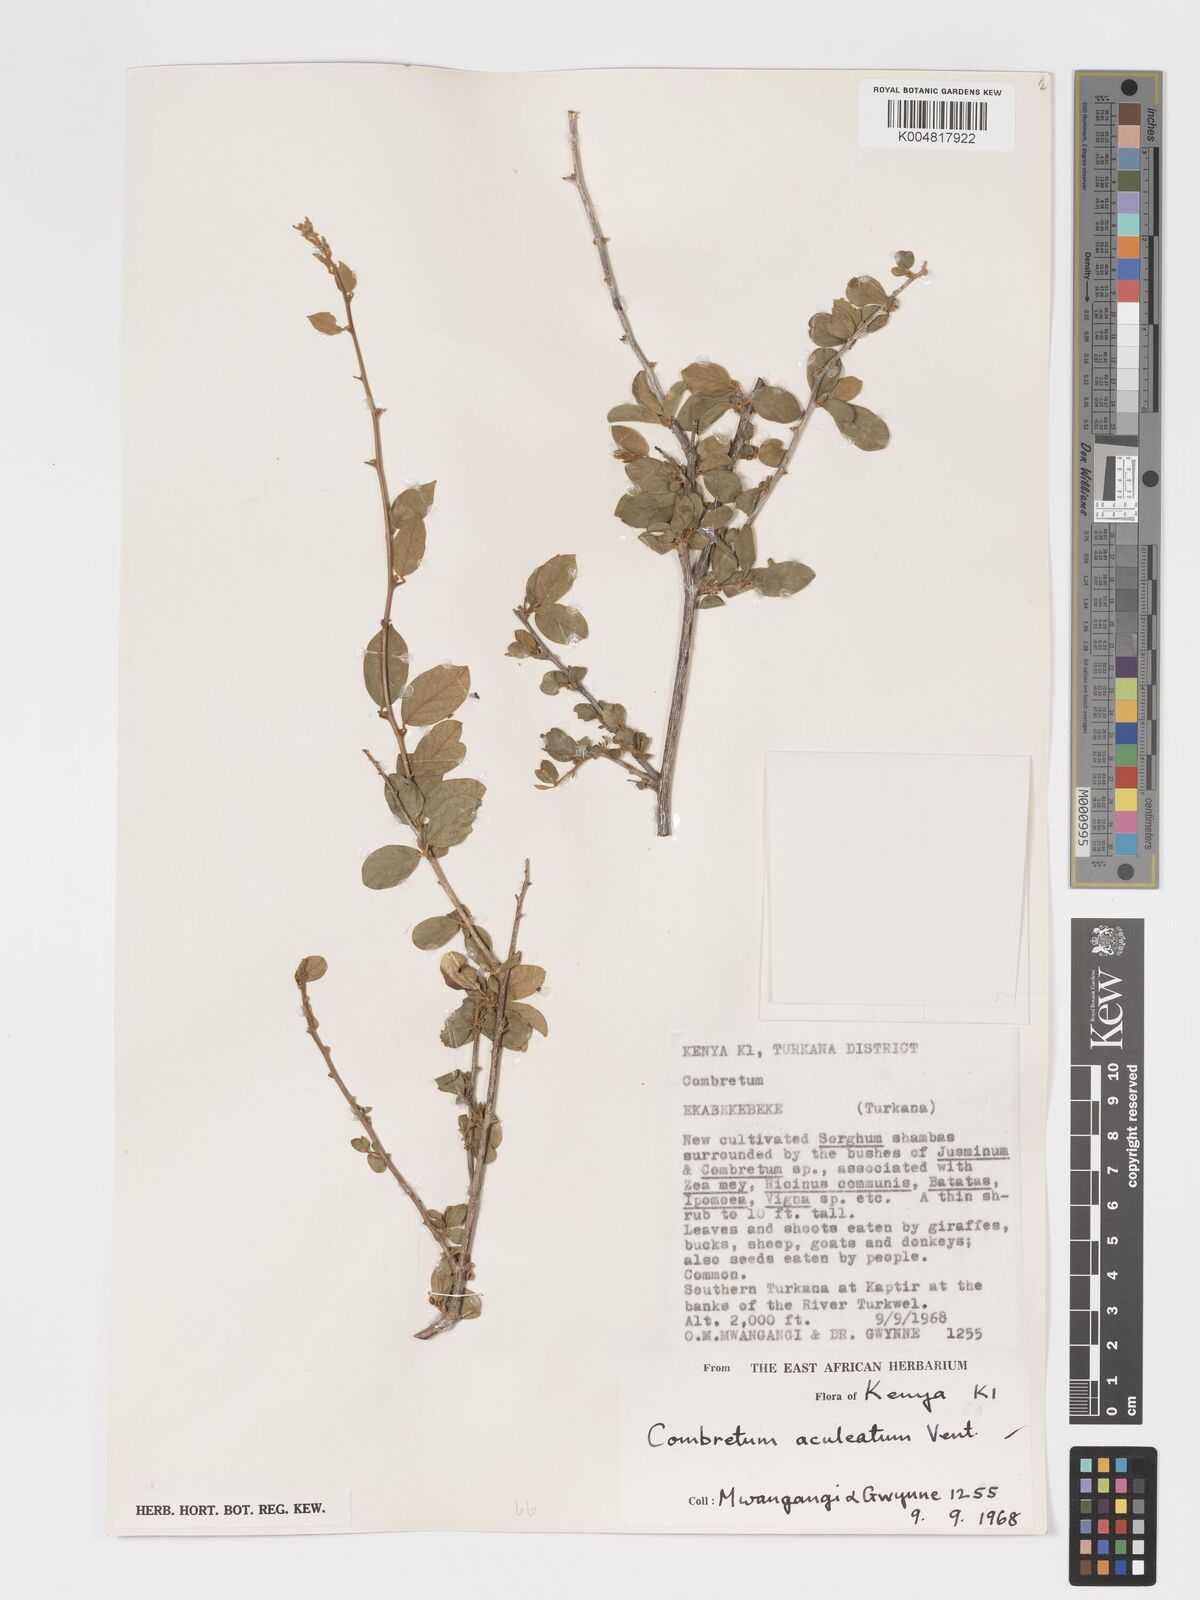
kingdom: Plantae
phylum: Tracheophyta
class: Magnoliopsida
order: Myrtales
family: Combretaceae
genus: Combretum
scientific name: Combretum aculeatum
